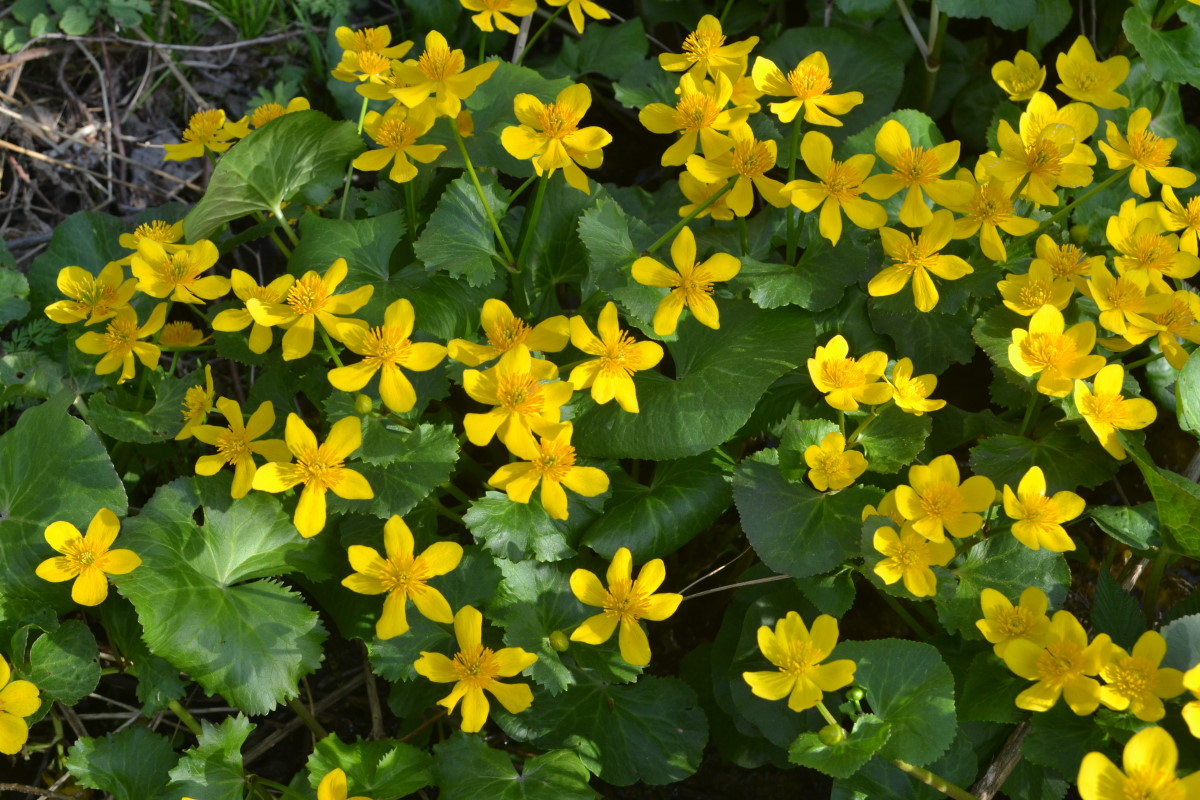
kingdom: Plantae
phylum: Tracheophyta
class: Magnoliopsida
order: Ranunculales
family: Ranunculaceae
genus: Caltha
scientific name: Caltha palustris
